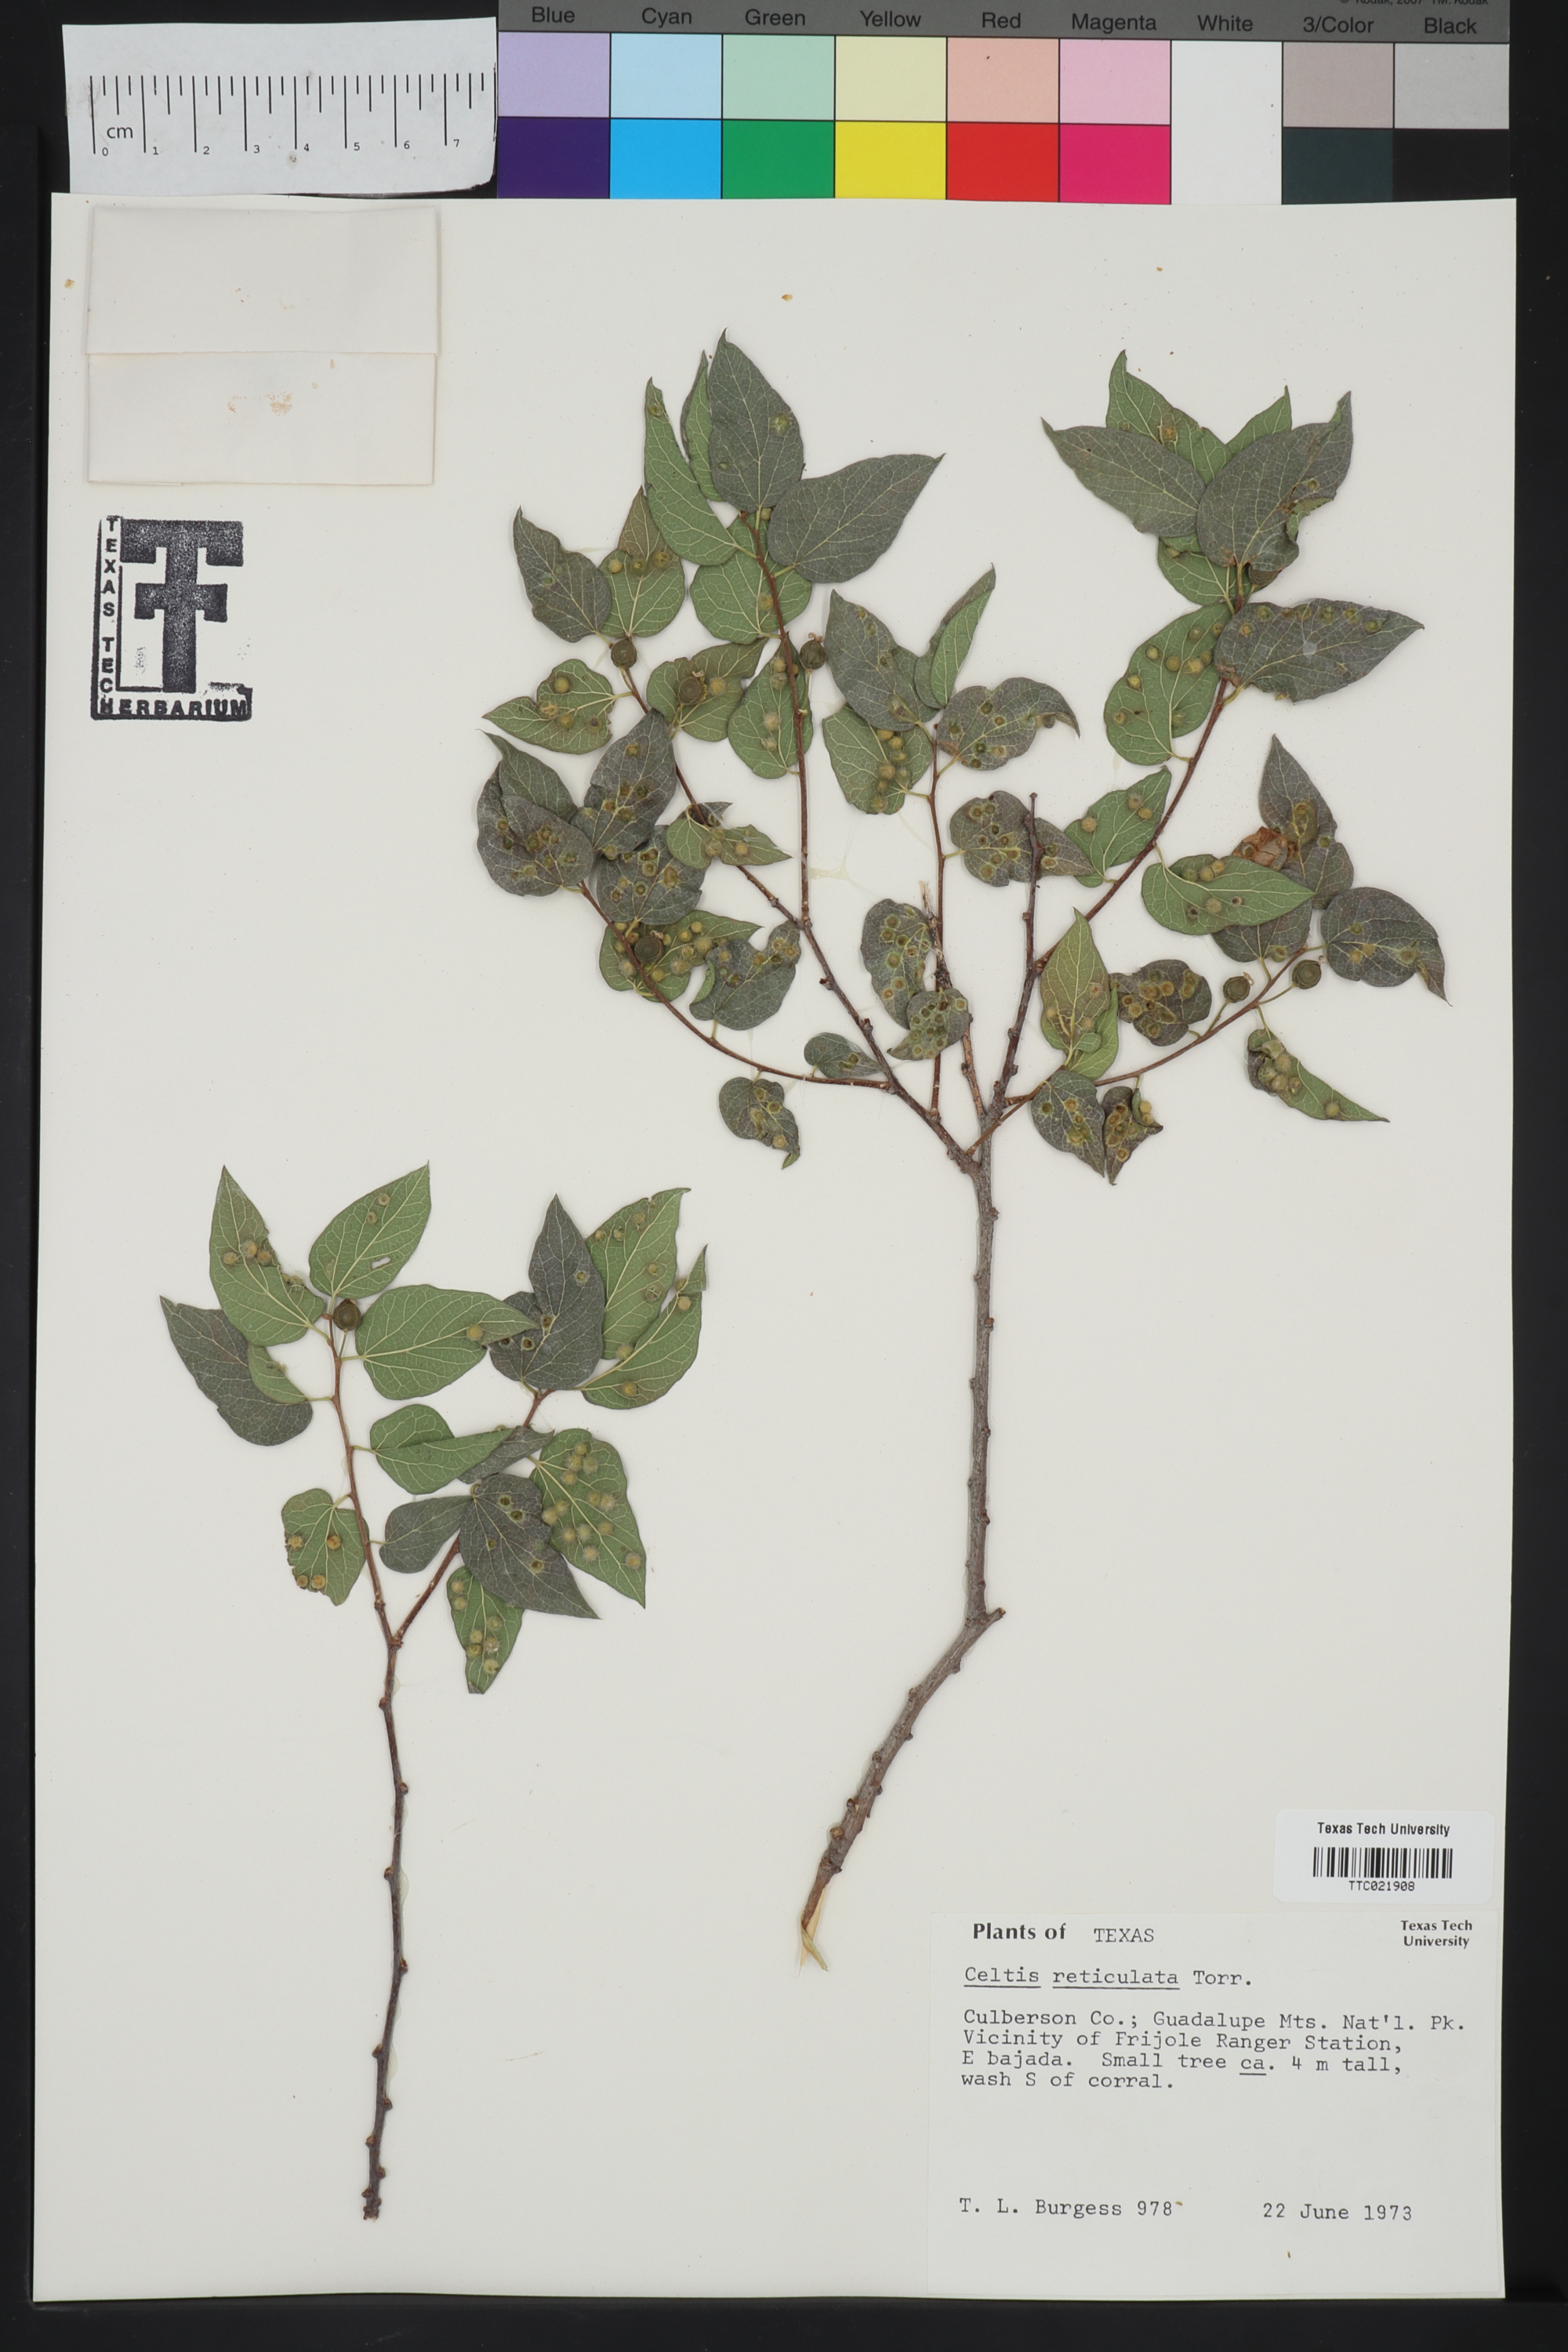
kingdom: Plantae
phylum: Tracheophyta
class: Magnoliopsida
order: Rosales
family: Cannabaceae
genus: Celtis
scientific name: Celtis reticulata
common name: Netleaf hackberry
